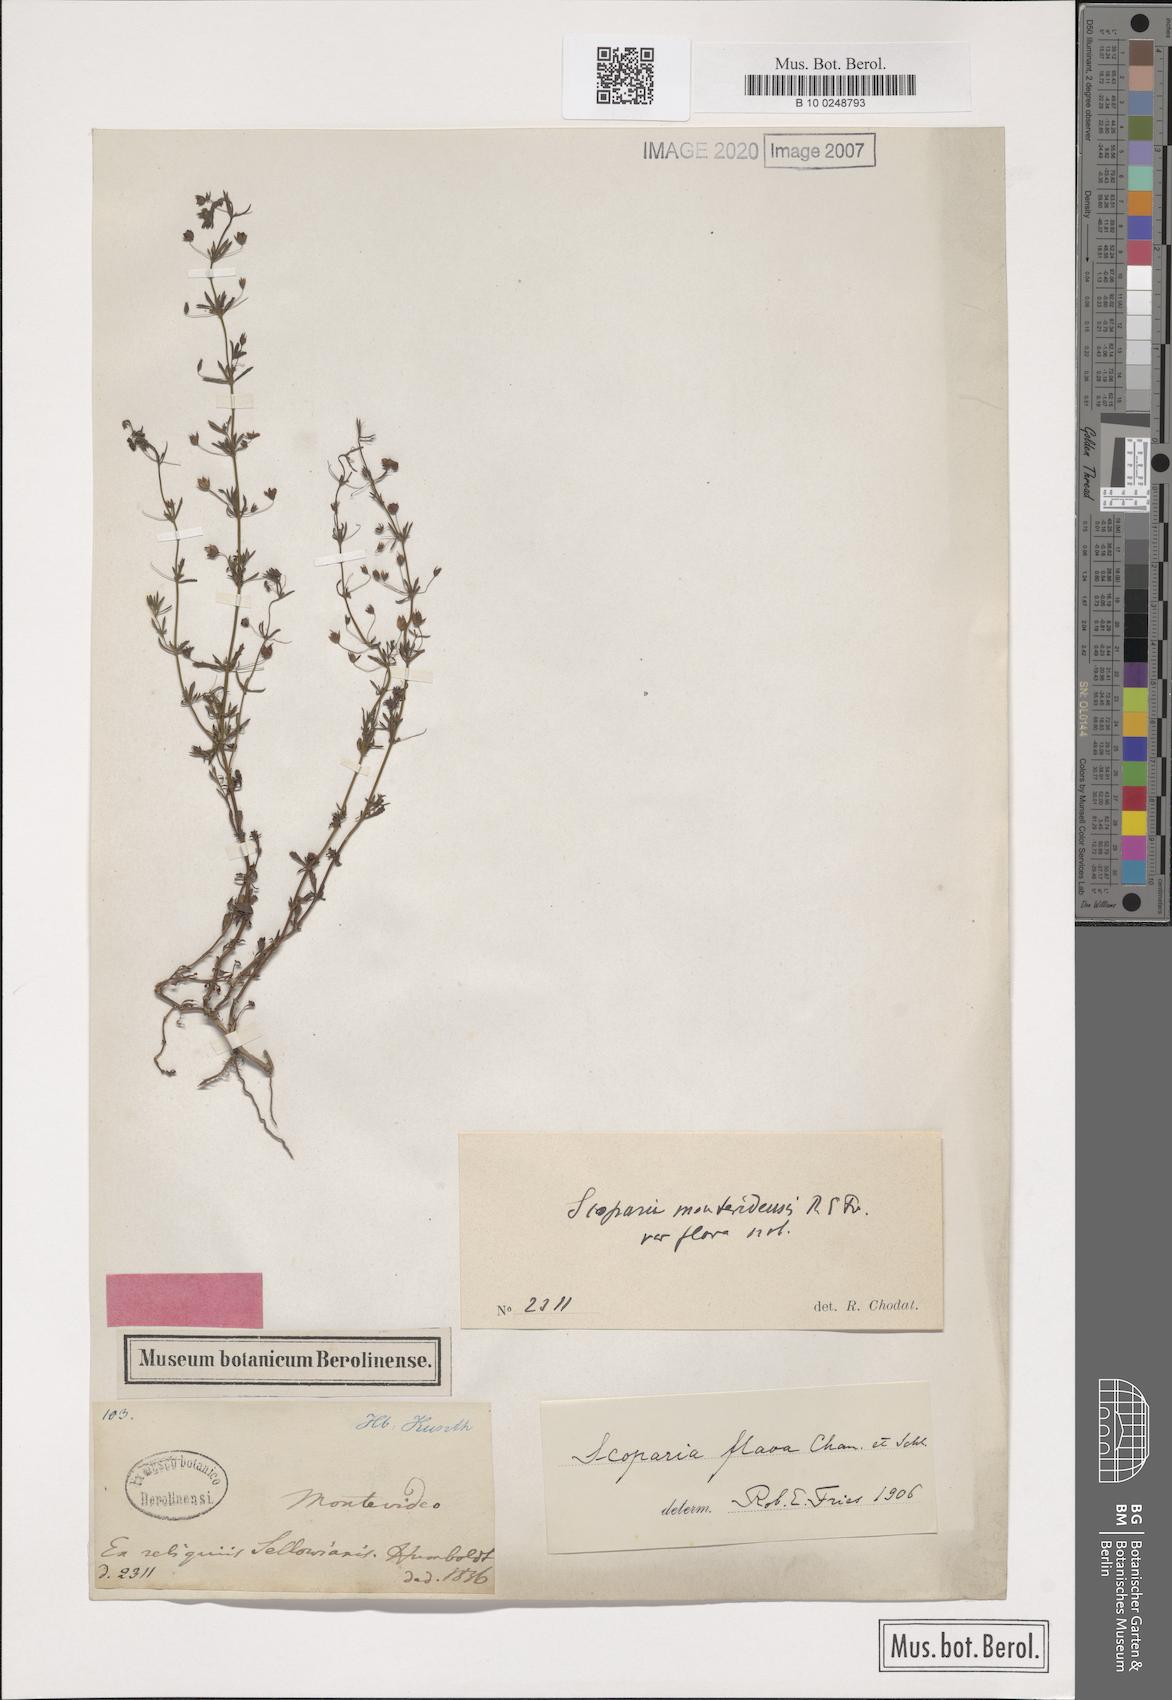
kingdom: Plantae
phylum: Tracheophyta
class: Magnoliopsida
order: Lamiales
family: Plantaginaceae
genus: Scoparia
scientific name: Scoparia montevidensis
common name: Broomwort
